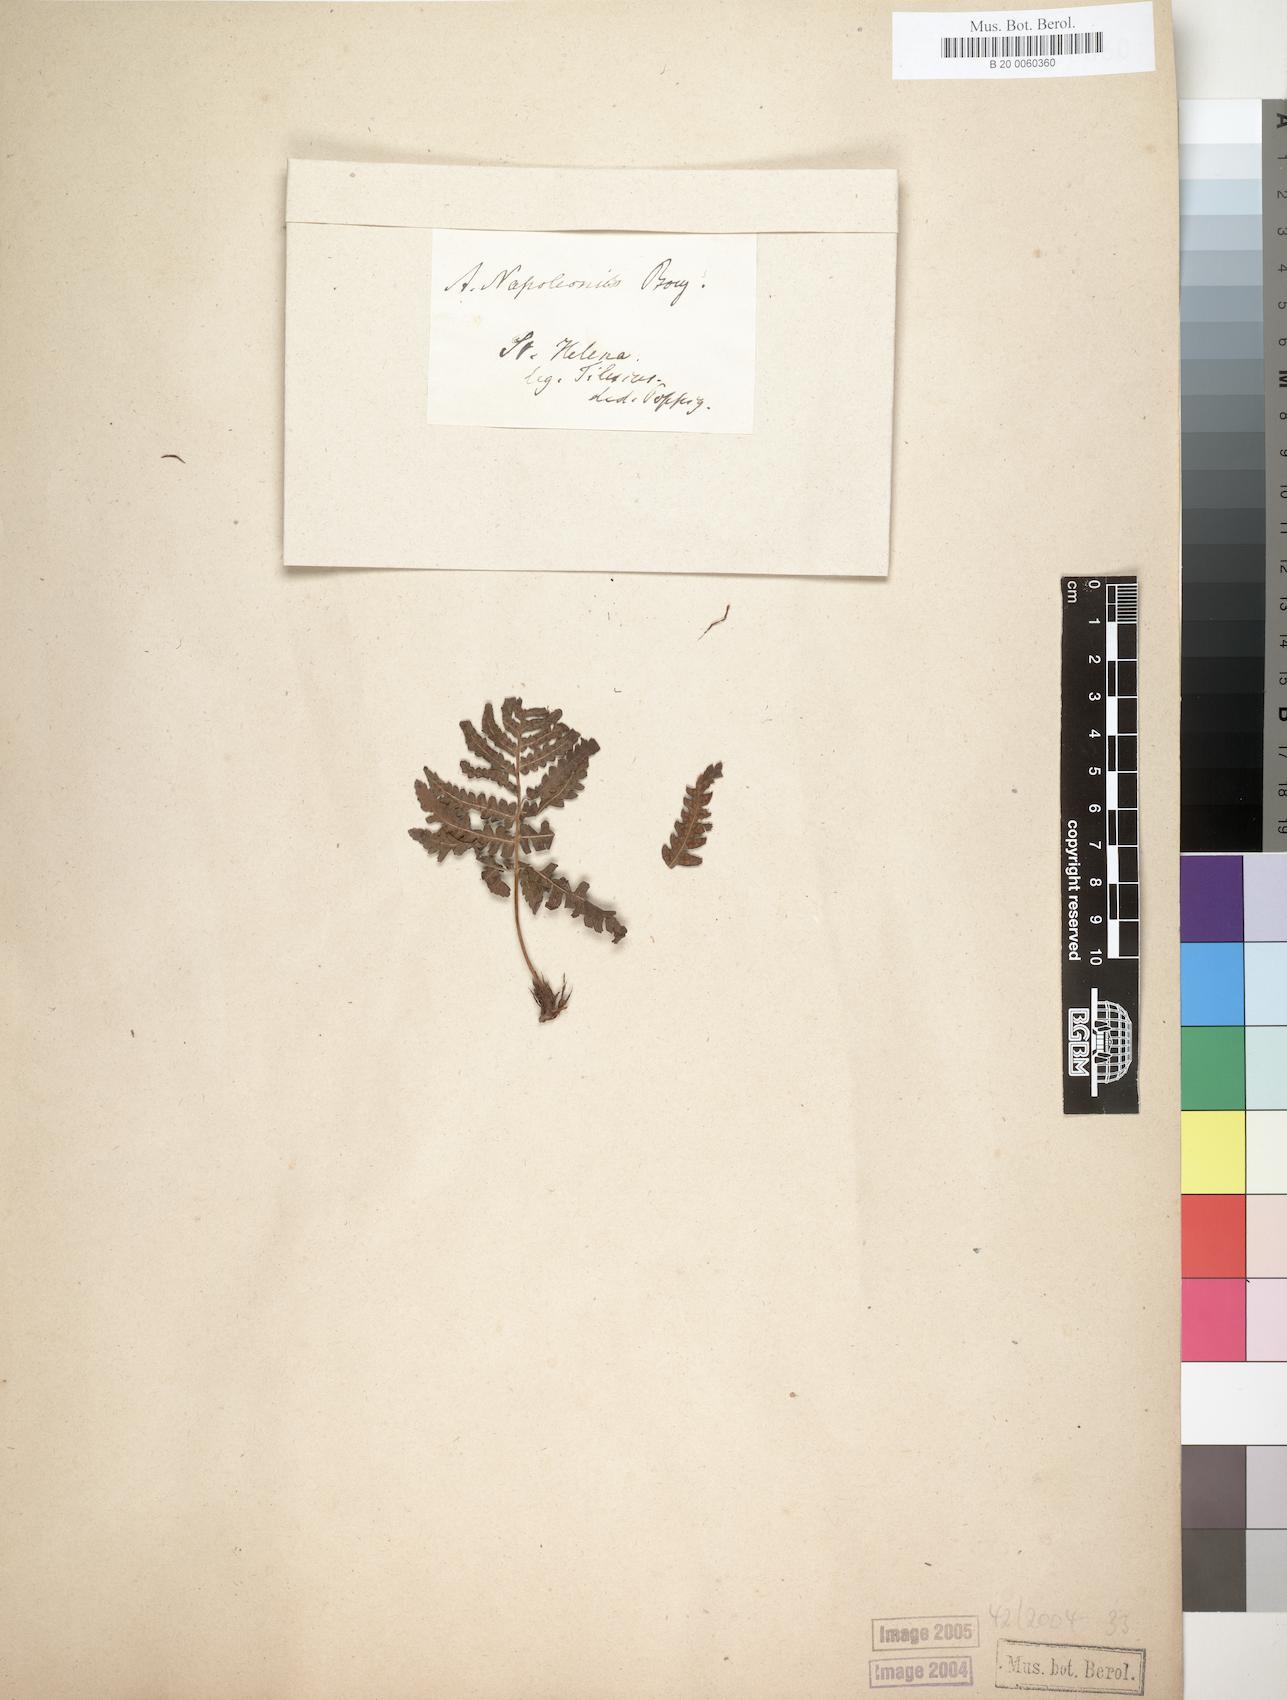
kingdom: Plantae
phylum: Tracheophyta
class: Polypodiopsida
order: Polypodiales
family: Dryopteridaceae
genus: Dryopteris
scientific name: Dryopteris napoleonis
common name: Small kidney fern
